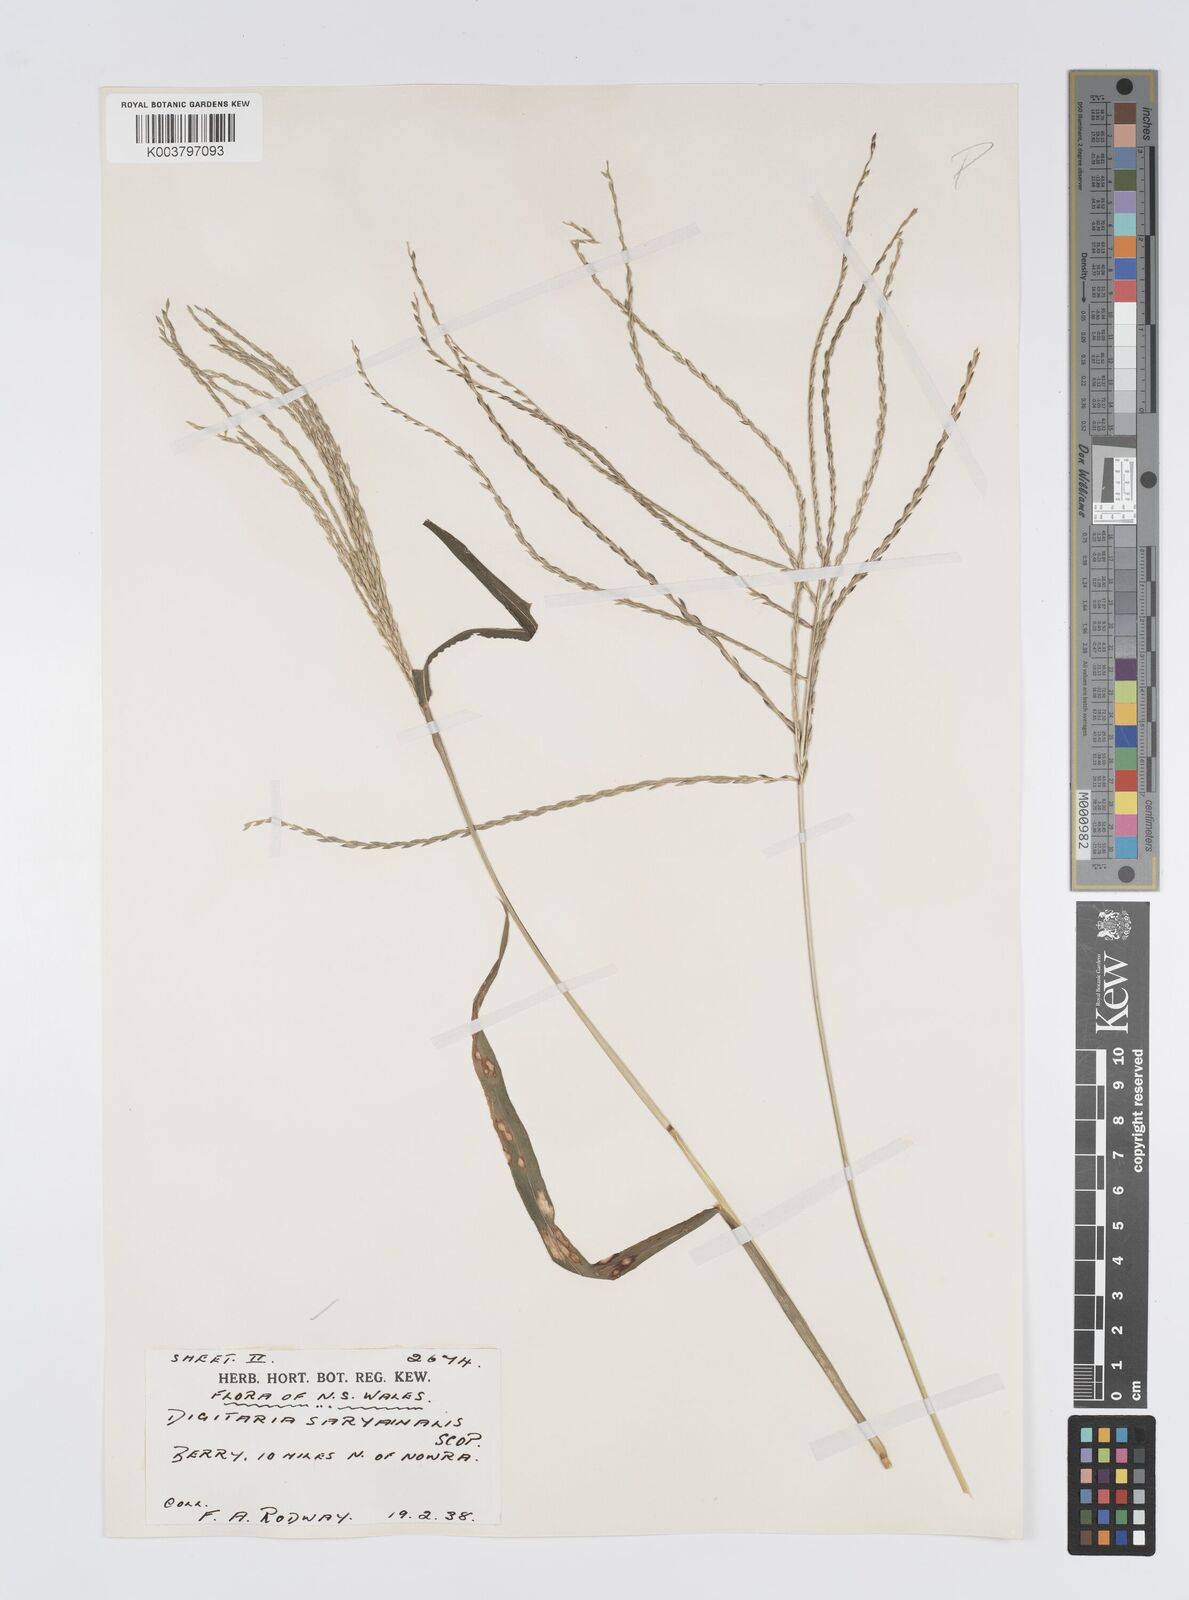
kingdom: Plantae
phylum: Tracheophyta
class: Liliopsida
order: Poales
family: Poaceae
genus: Digitaria
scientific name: Digitaria ciliaris
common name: Tropical finger-grass
